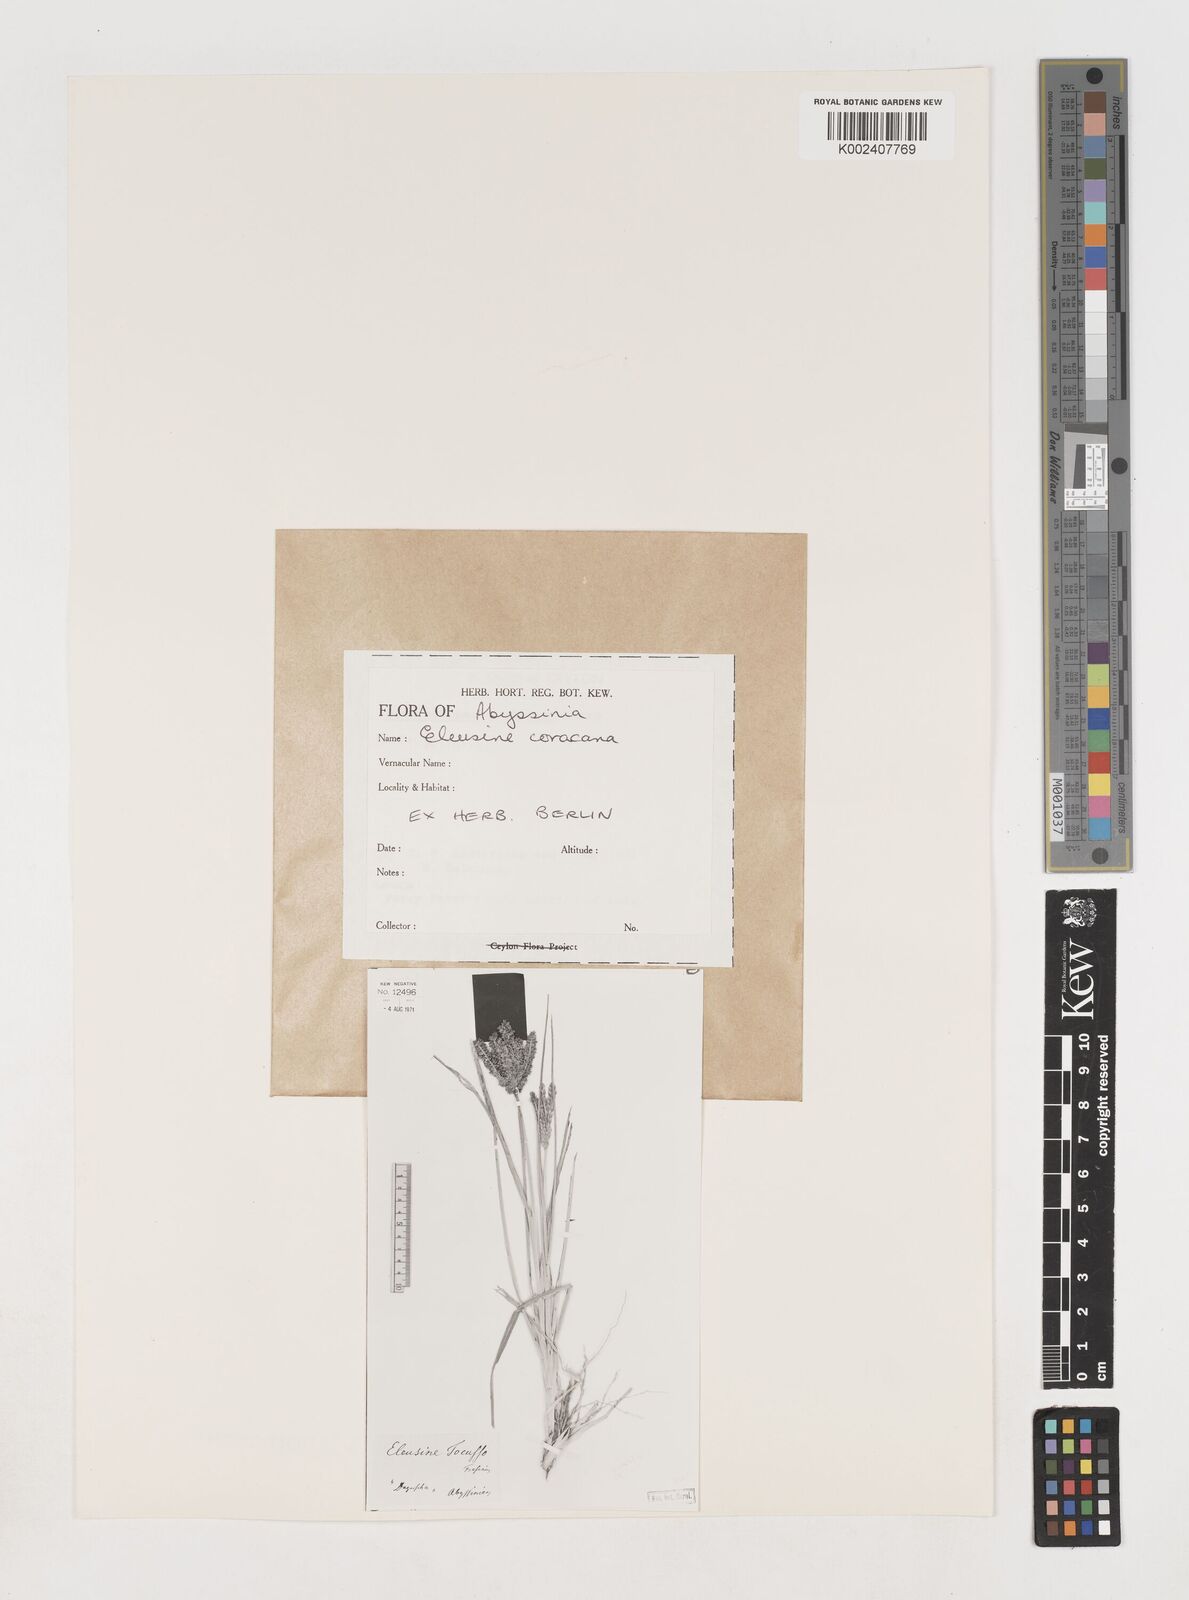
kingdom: Plantae
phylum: Tracheophyta
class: Liliopsida
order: Poales
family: Poaceae
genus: Eleusine
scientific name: Eleusine coracana
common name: Finger millet
